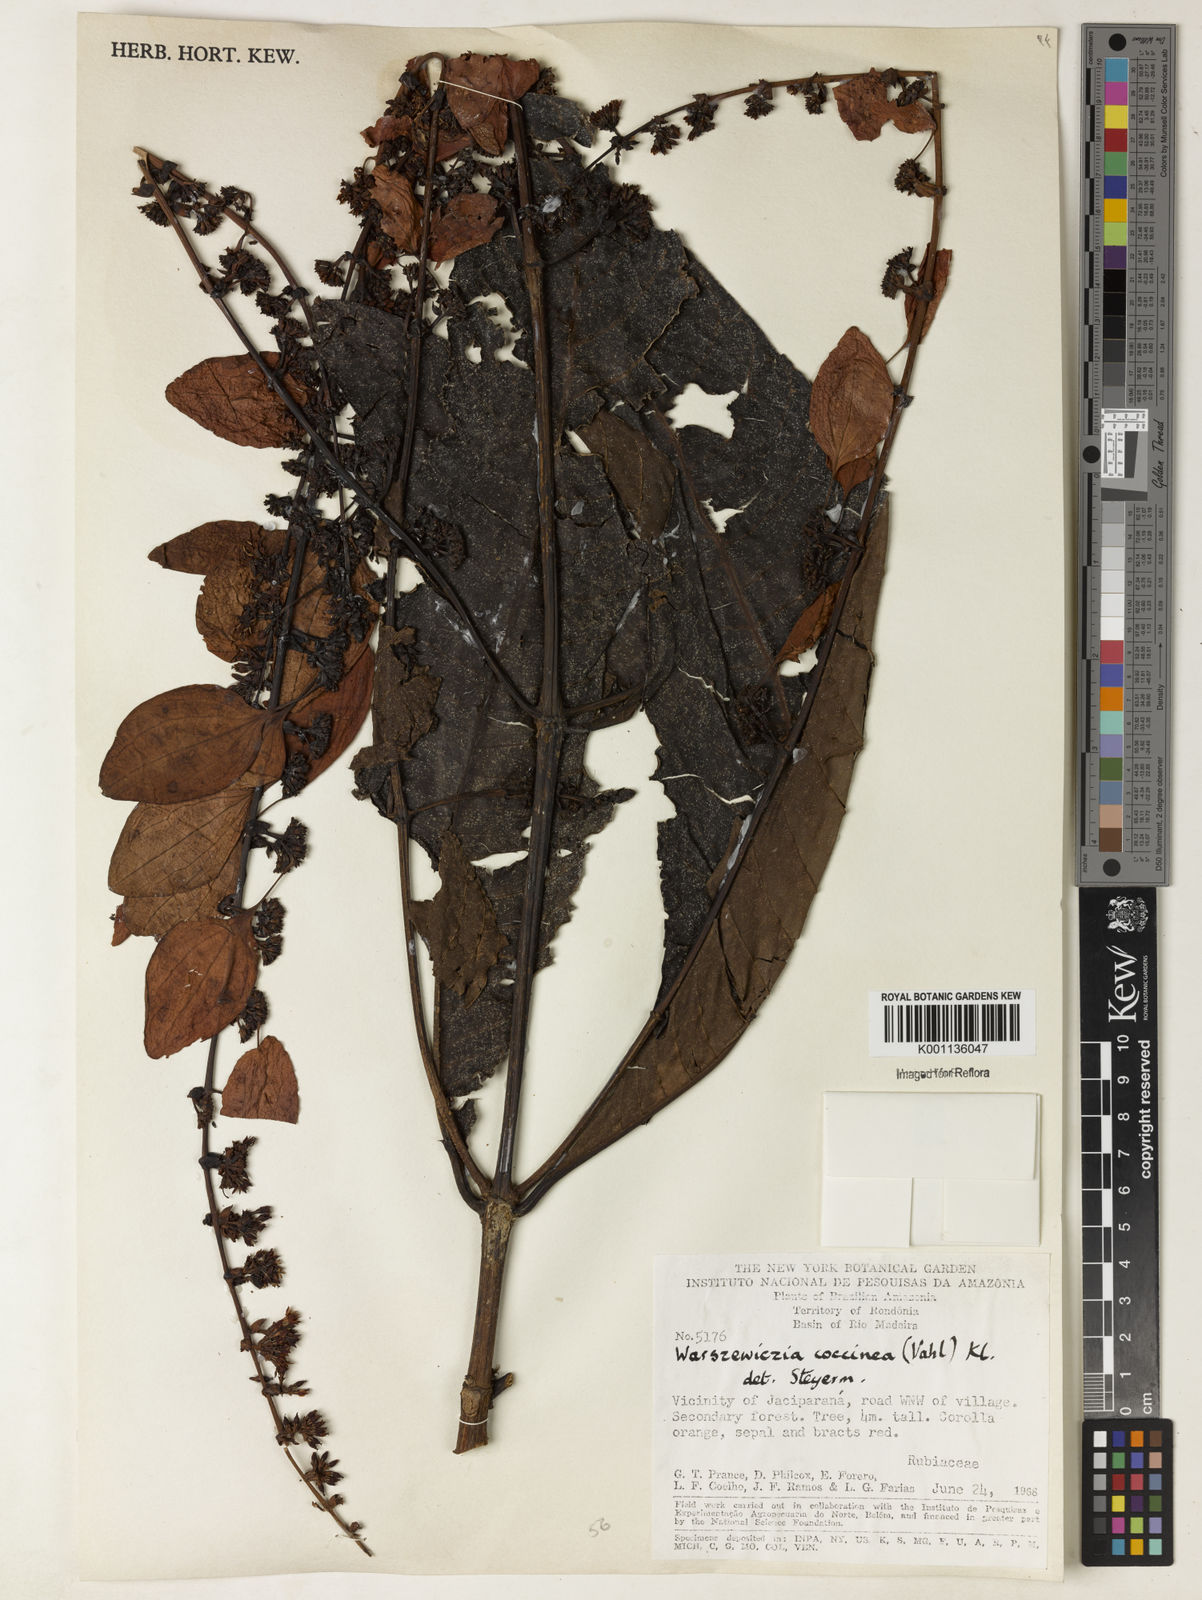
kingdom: Plantae
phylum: Tracheophyta
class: Magnoliopsida
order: Gentianales
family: Rubiaceae
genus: Warszewiczia
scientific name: Warszewiczia coccinea
